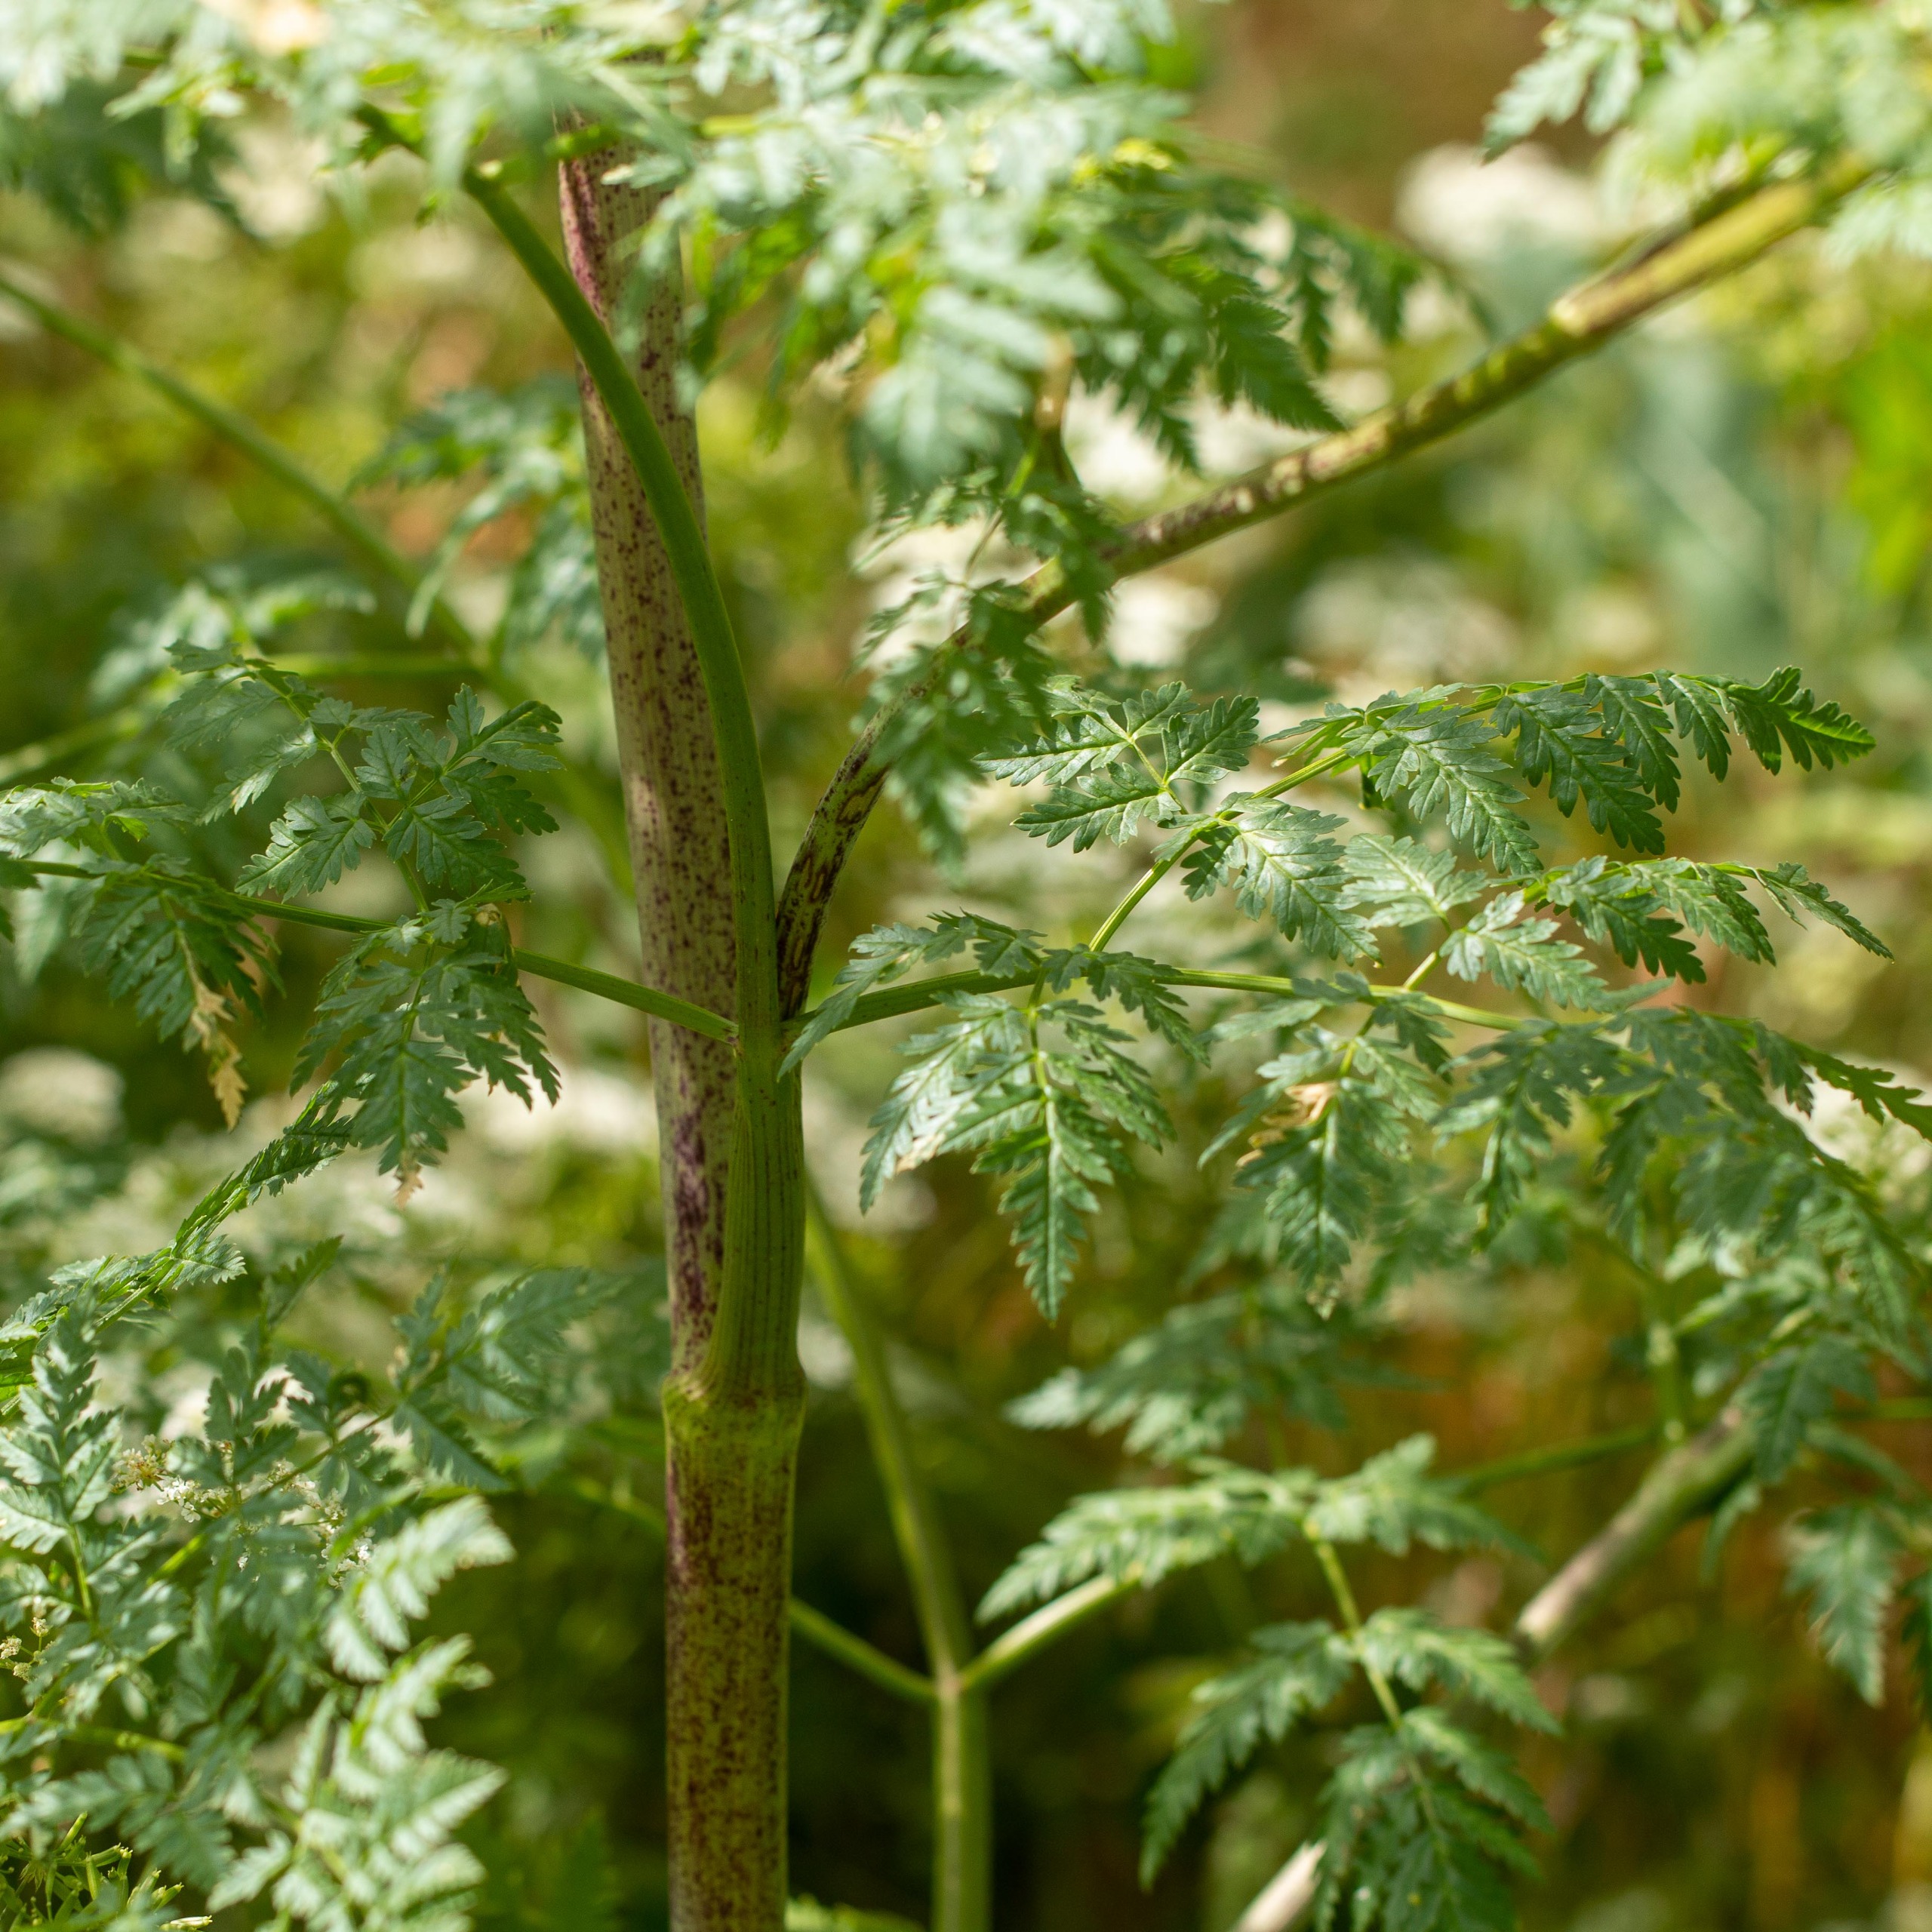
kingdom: Plantae
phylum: Tracheophyta
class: Magnoliopsida
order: Apiales
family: Apiaceae
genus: Conium
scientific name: Conium maculatum
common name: Skarntyde
